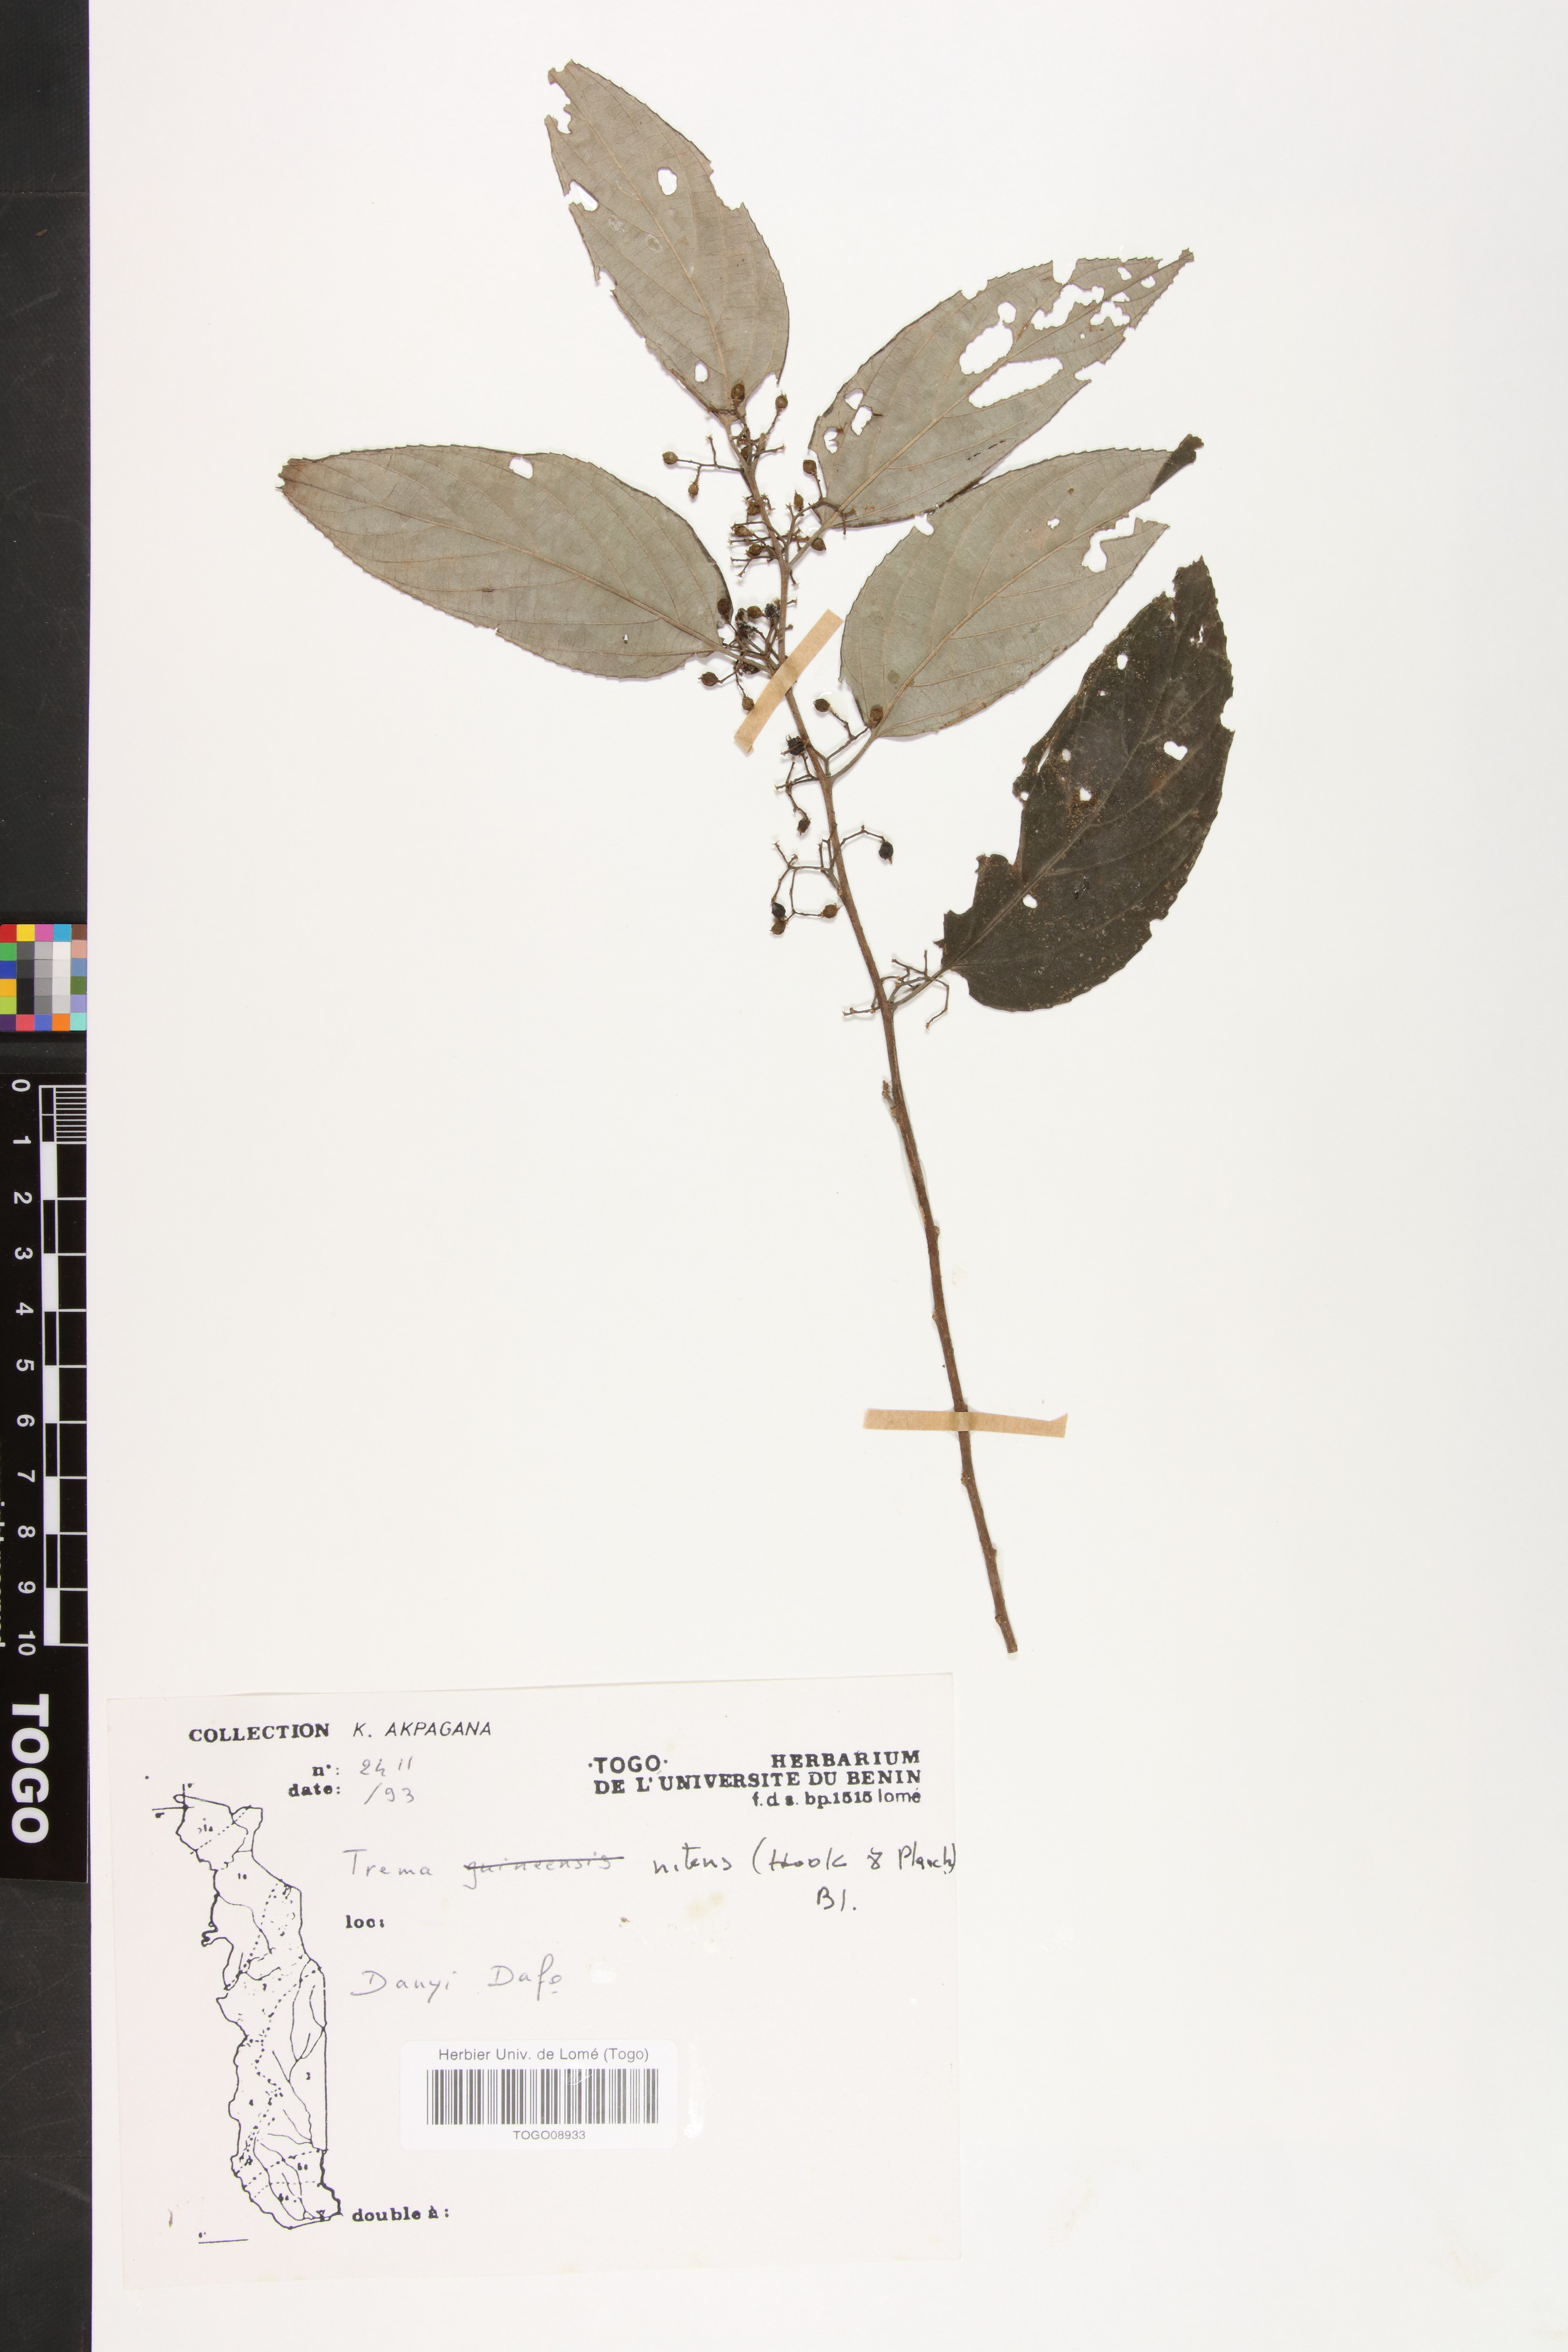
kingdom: Plantae
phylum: Tracheophyta
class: Magnoliopsida
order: Rosales
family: Cannabaceae
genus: Trema
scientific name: Trema orientale
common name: Indian charcoal tree
